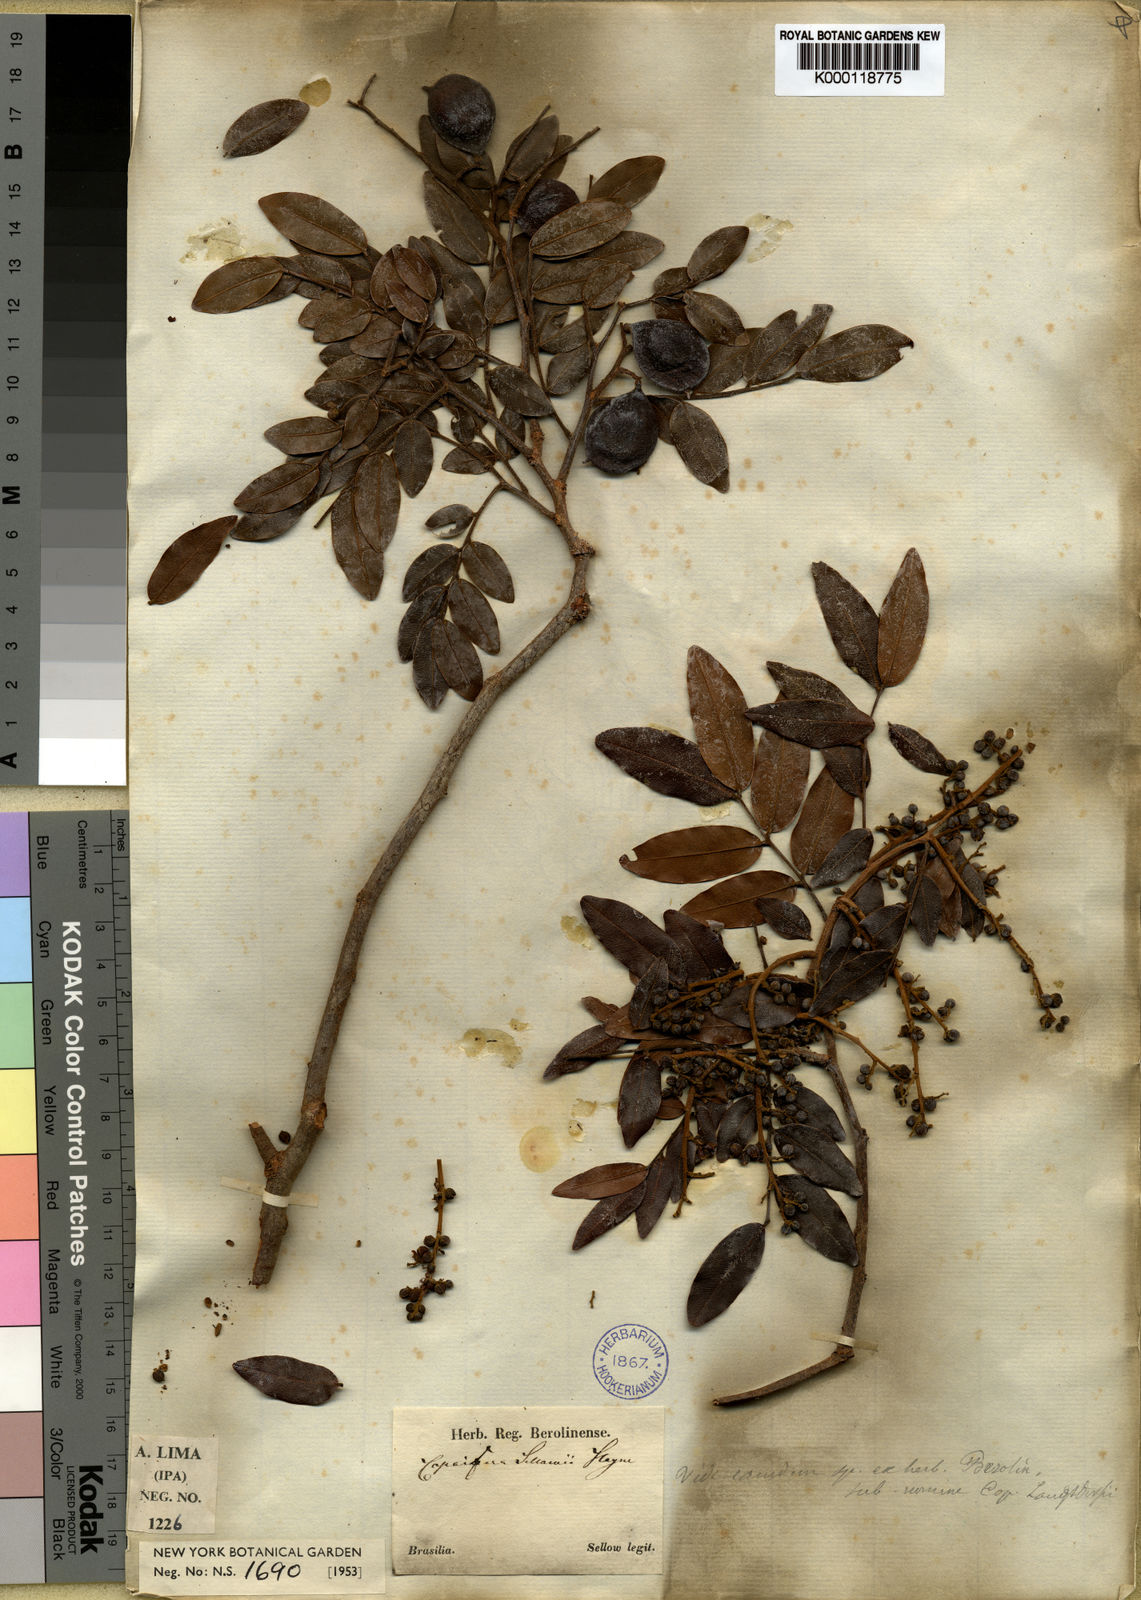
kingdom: Plantae
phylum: Tracheophyta
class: Magnoliopsida
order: Fabales
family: Fabaceae
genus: Copaifera
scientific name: Copaifera langsdorffii
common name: Brazilian diesel tree
